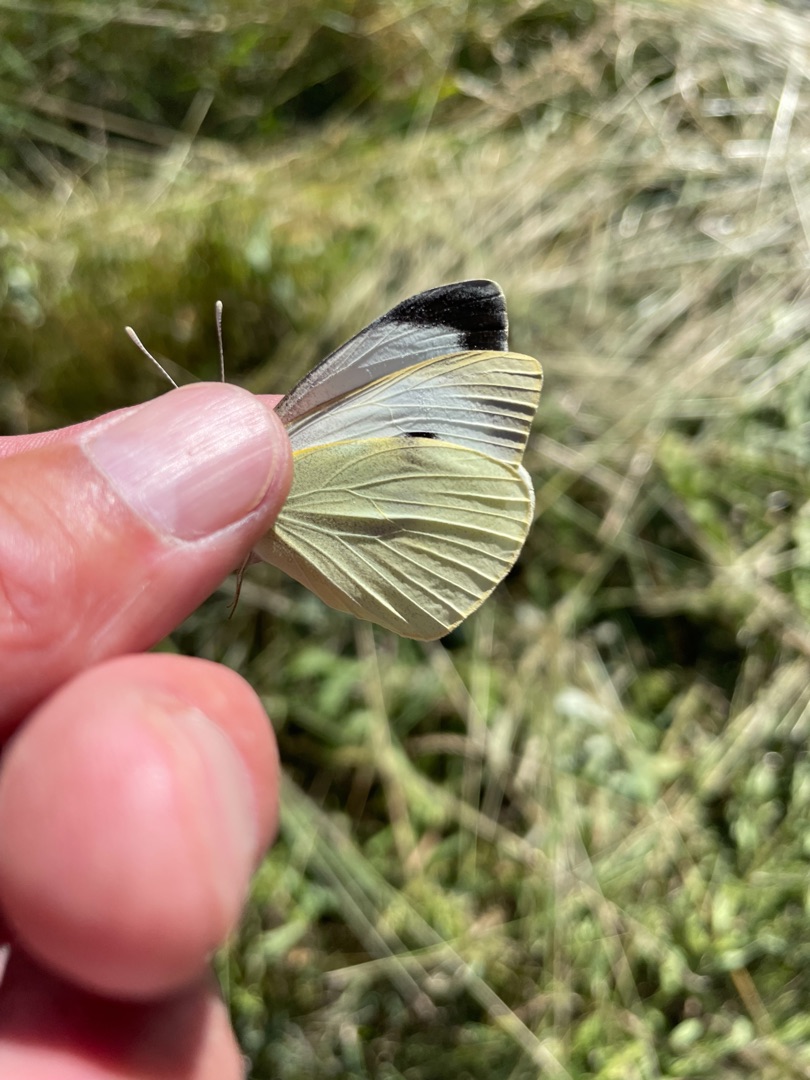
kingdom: Animalia
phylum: Arthropoda
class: Insecta
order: Lepidoptera
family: Pieridae
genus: Pieris
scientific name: Pieris brassicae
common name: Stor kålsommerfugl
